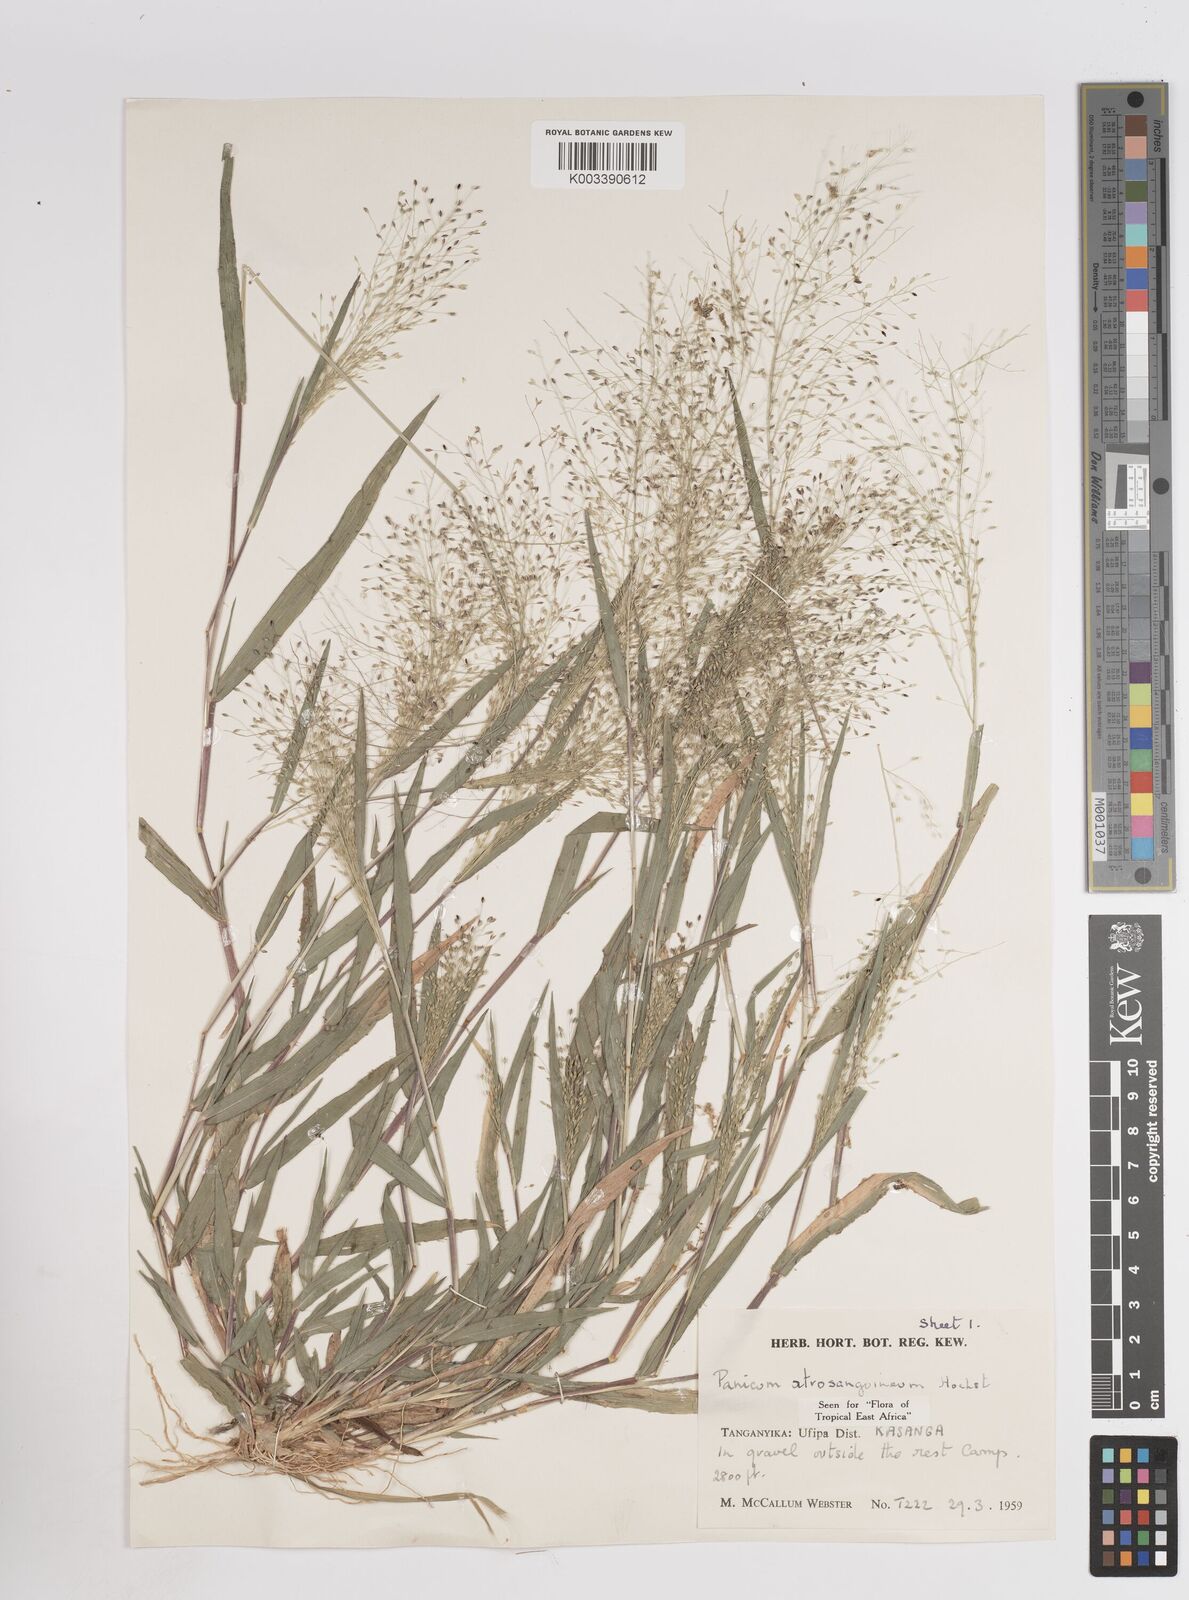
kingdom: Plantae
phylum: Tracheophyta
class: Liliopsida
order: Poales
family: Poaceae
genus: Panicum
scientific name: Panicum atrosanguineum
